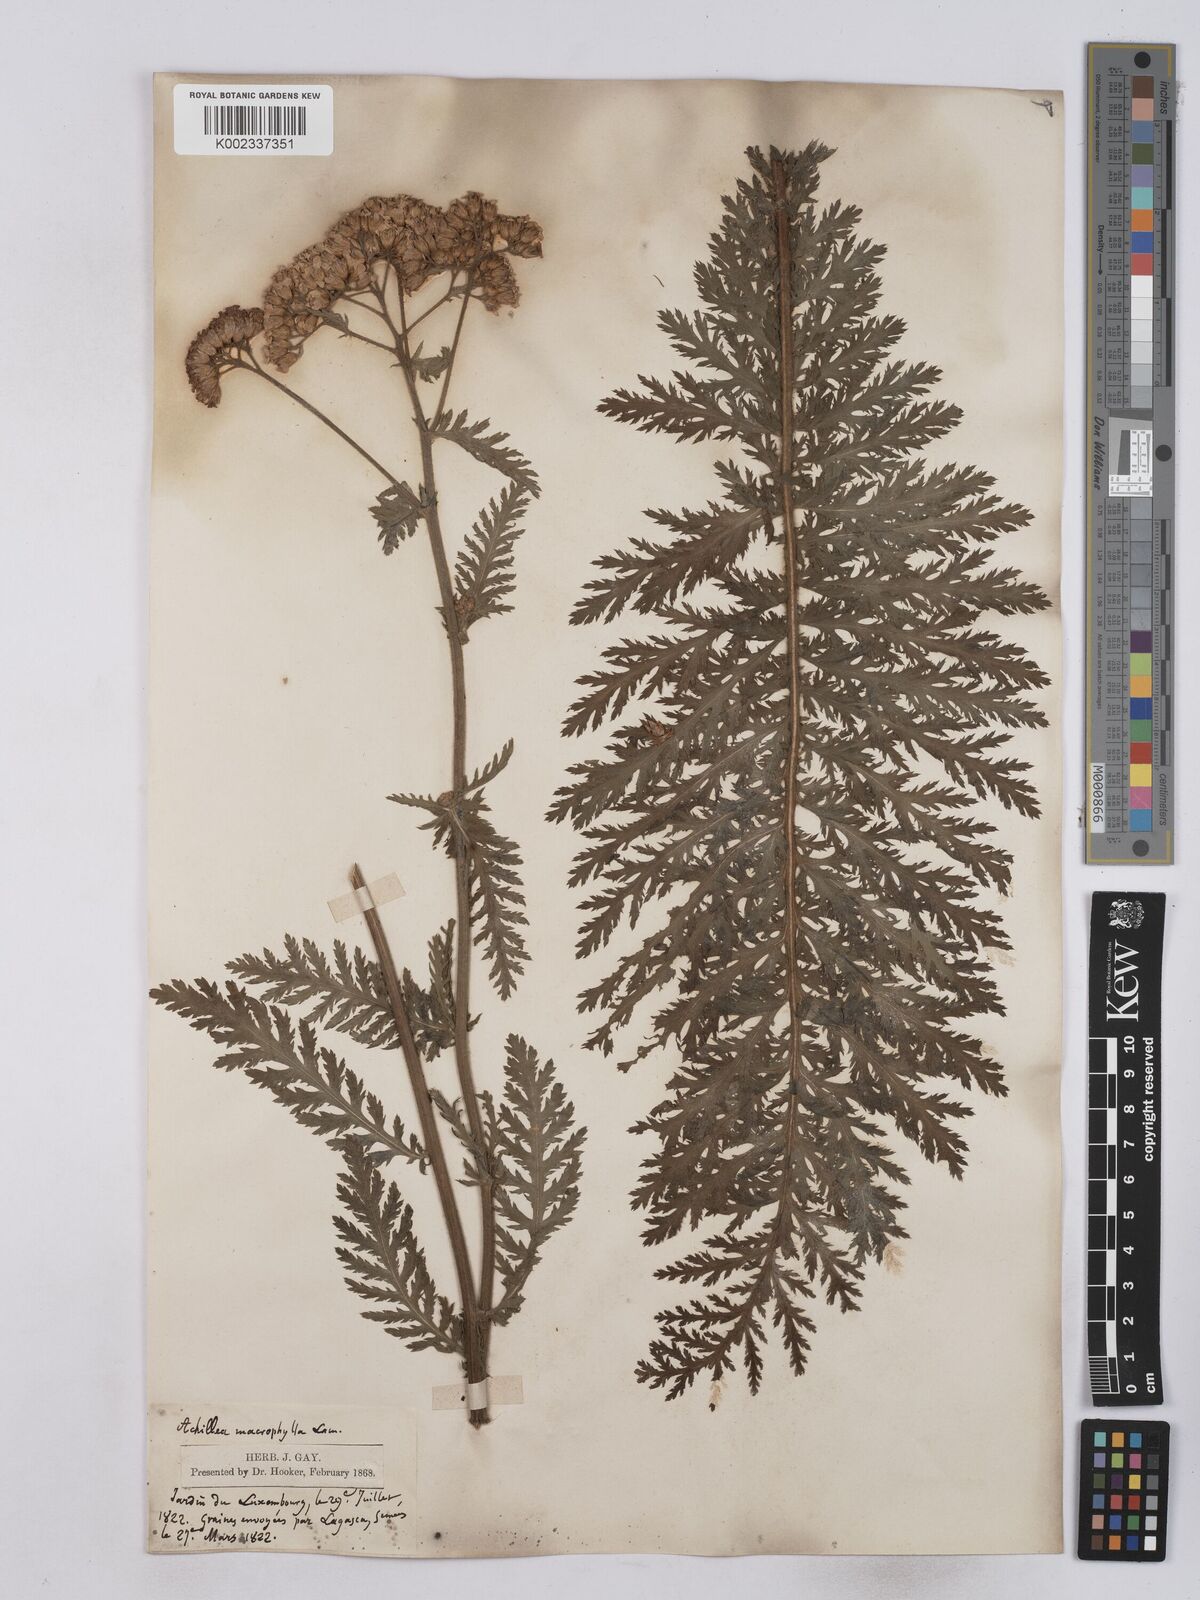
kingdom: Plantae
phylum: Tracheophyta
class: Magnoliopsida
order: Asterales
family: Asteraceae
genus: Achillea
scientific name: Achillea valesiaca
